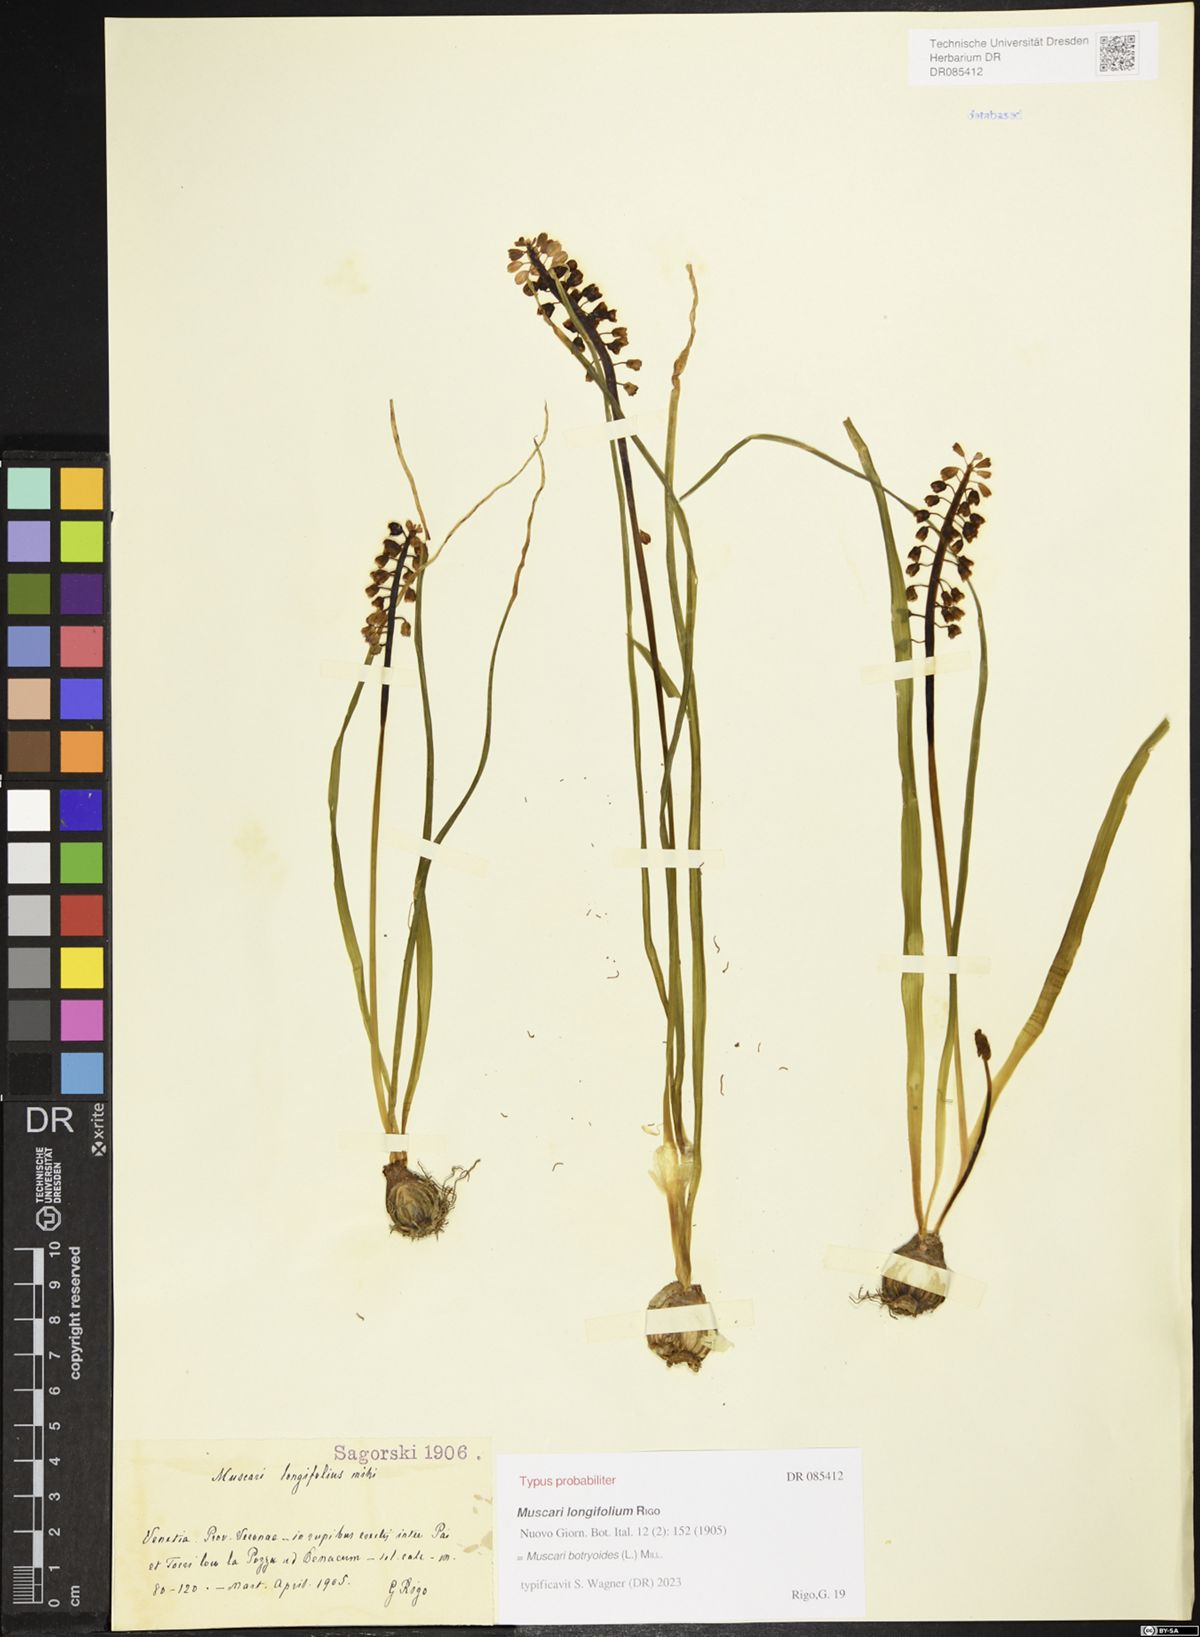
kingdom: Plantae
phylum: Tracheophyta
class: Liliopsida
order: Asparagales
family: Asparagaceae
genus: Muscari
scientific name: Muscari botryoides
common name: Compact grape-hyacinth
